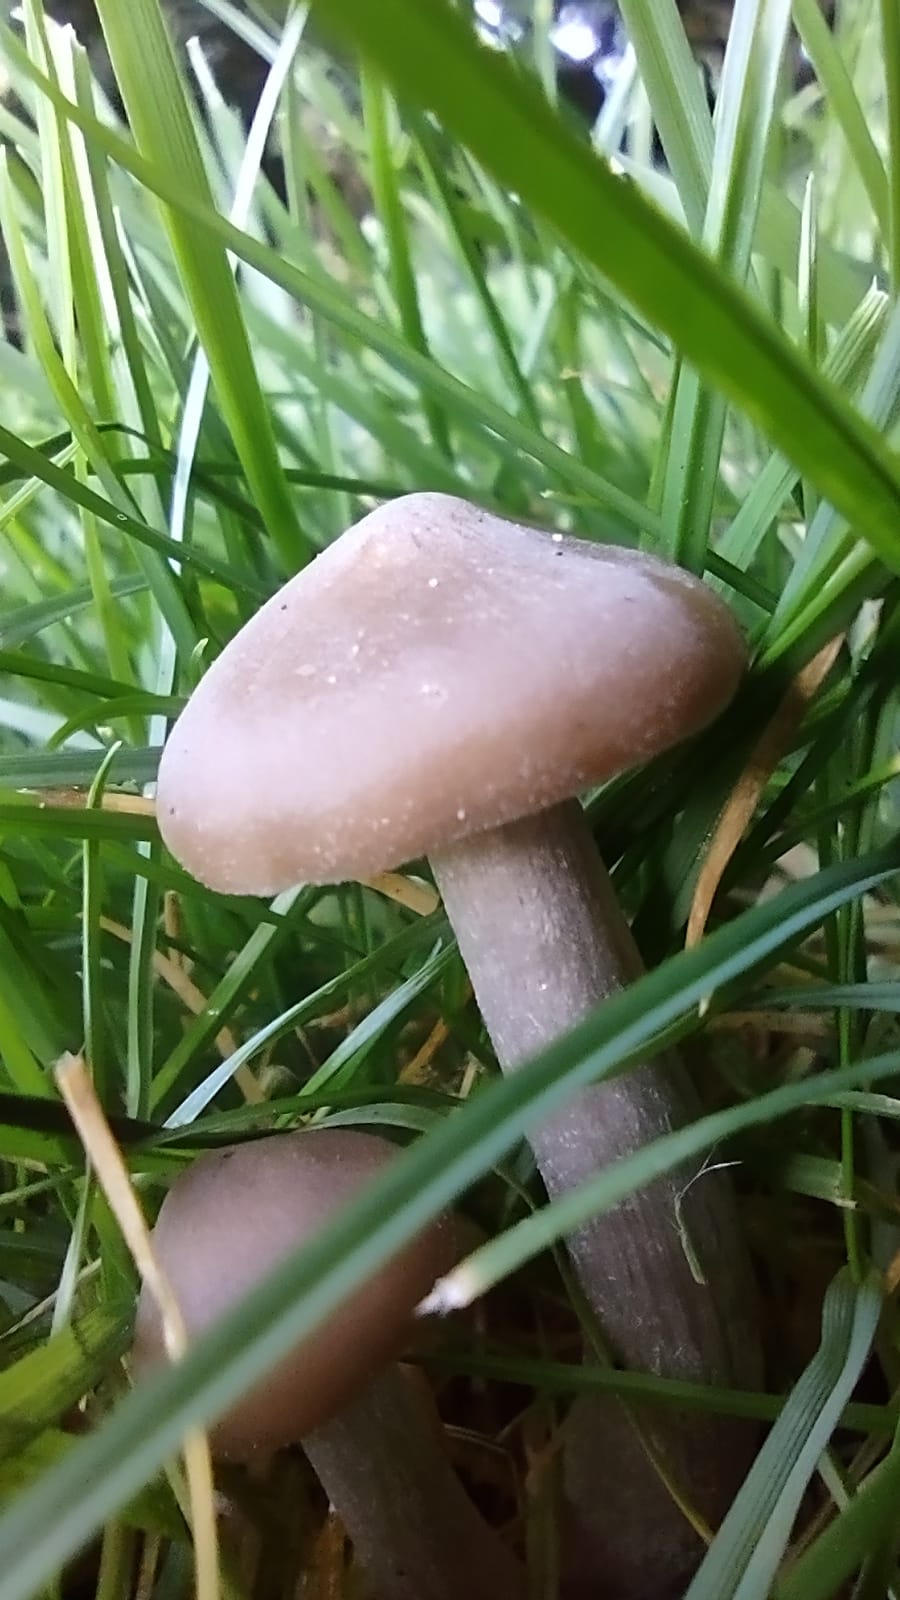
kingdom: Fungi
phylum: Basidiomycota
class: Agaricomycetes
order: Agaricales
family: Tricholomataceae
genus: Lepista
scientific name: Lepista
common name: hekseringshat
